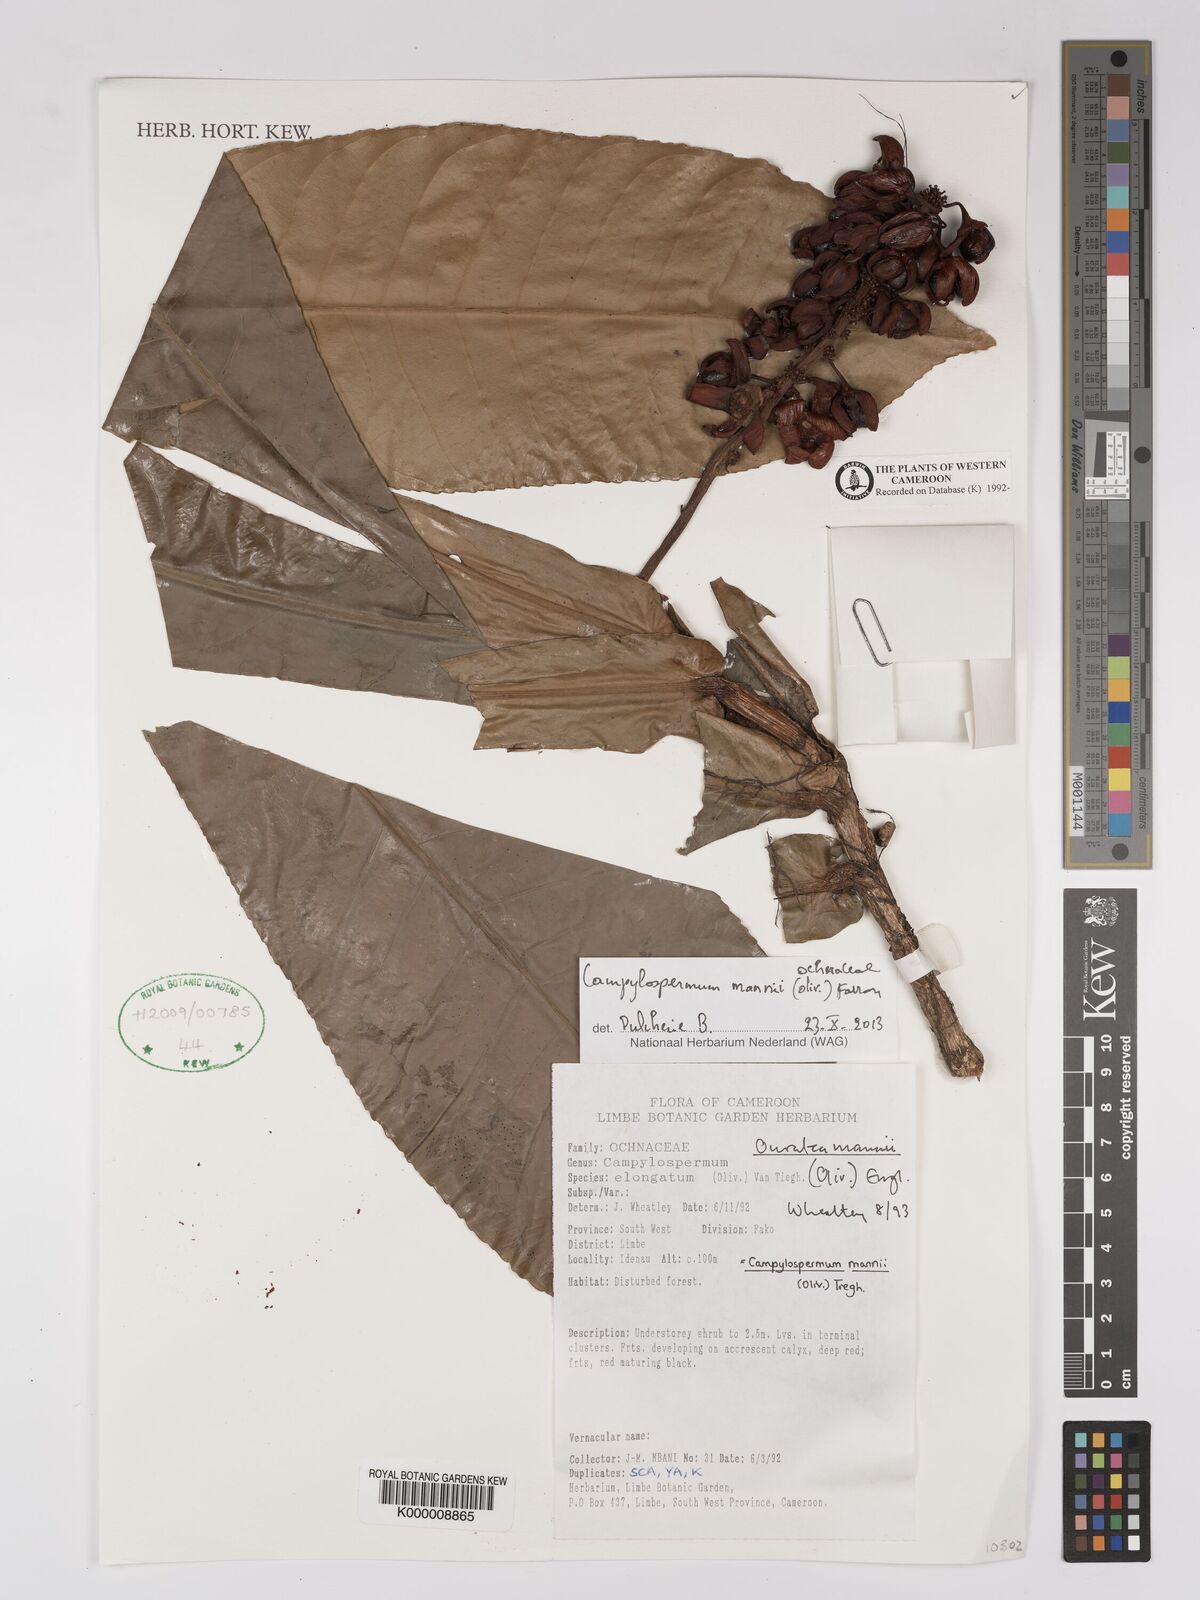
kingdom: Plantae
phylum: Tracheophyta
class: Magnoliopsida
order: Malpighiales
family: Ochnaceae
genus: Campylospermum
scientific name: Campylospermum vogelii
